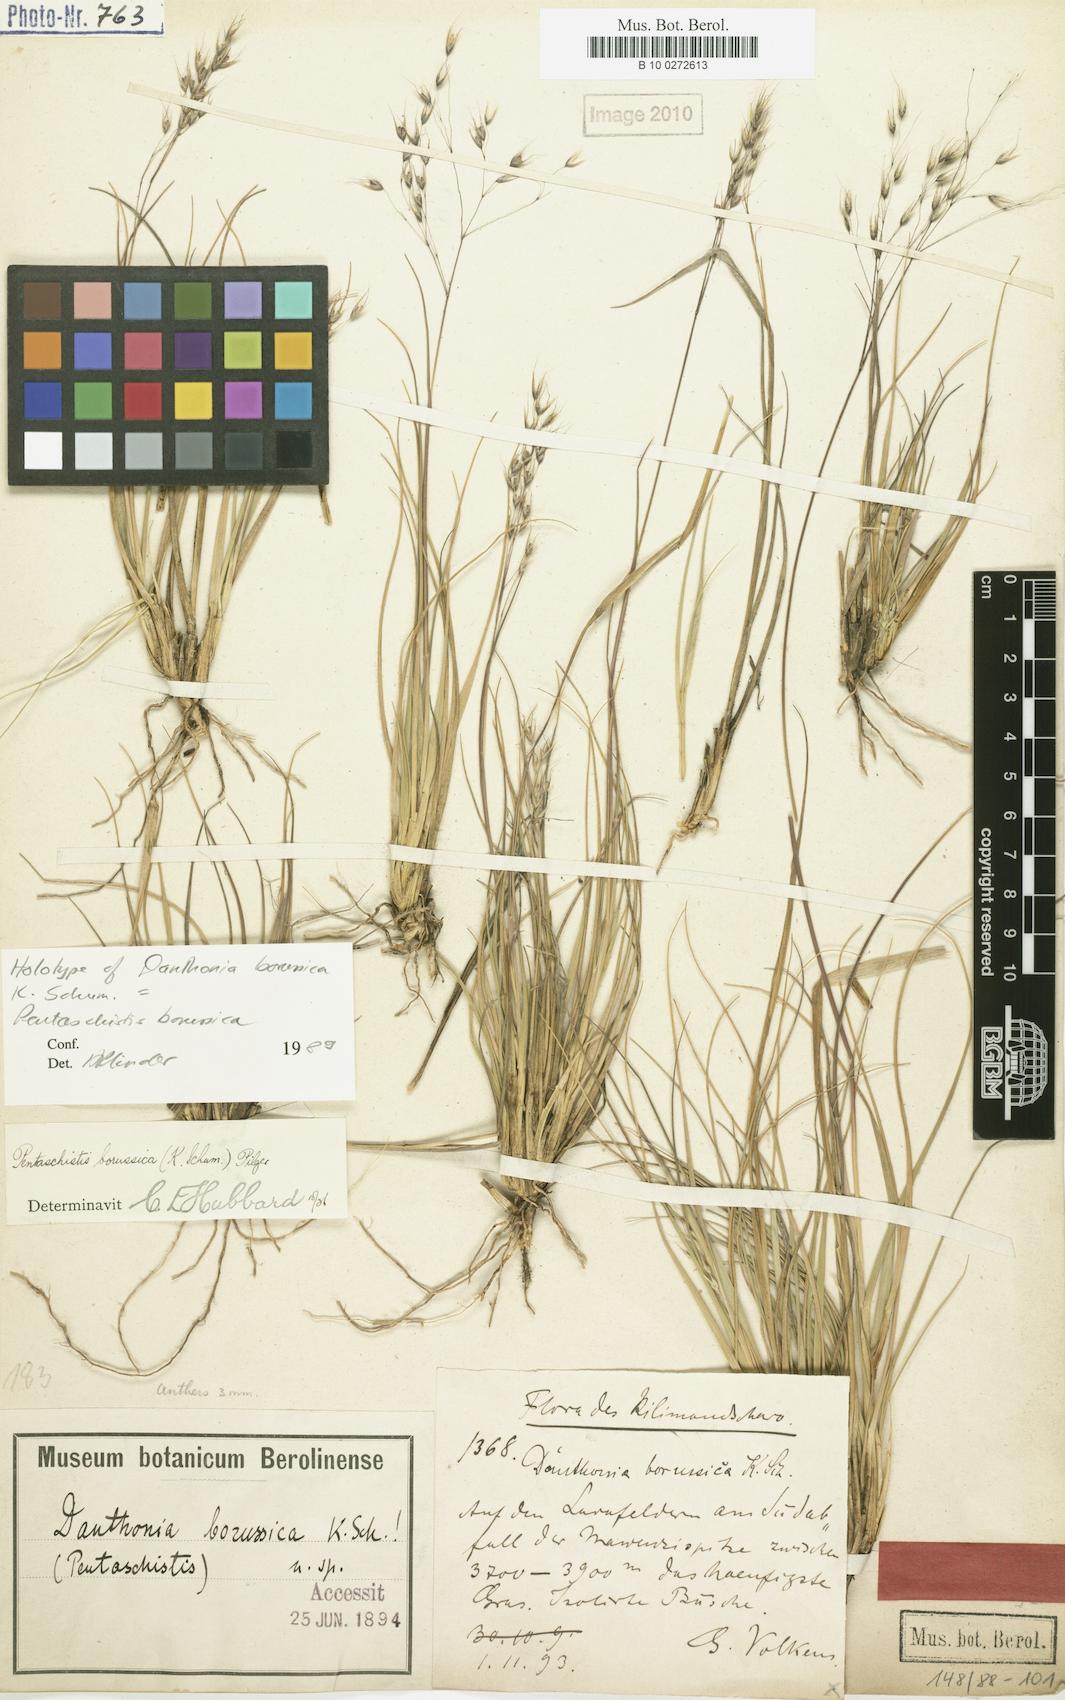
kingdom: Plantae
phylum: Tracheophyta
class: Liliopsida
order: Poales
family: Poaceae
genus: Pentameris
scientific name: Pentameris borussica
